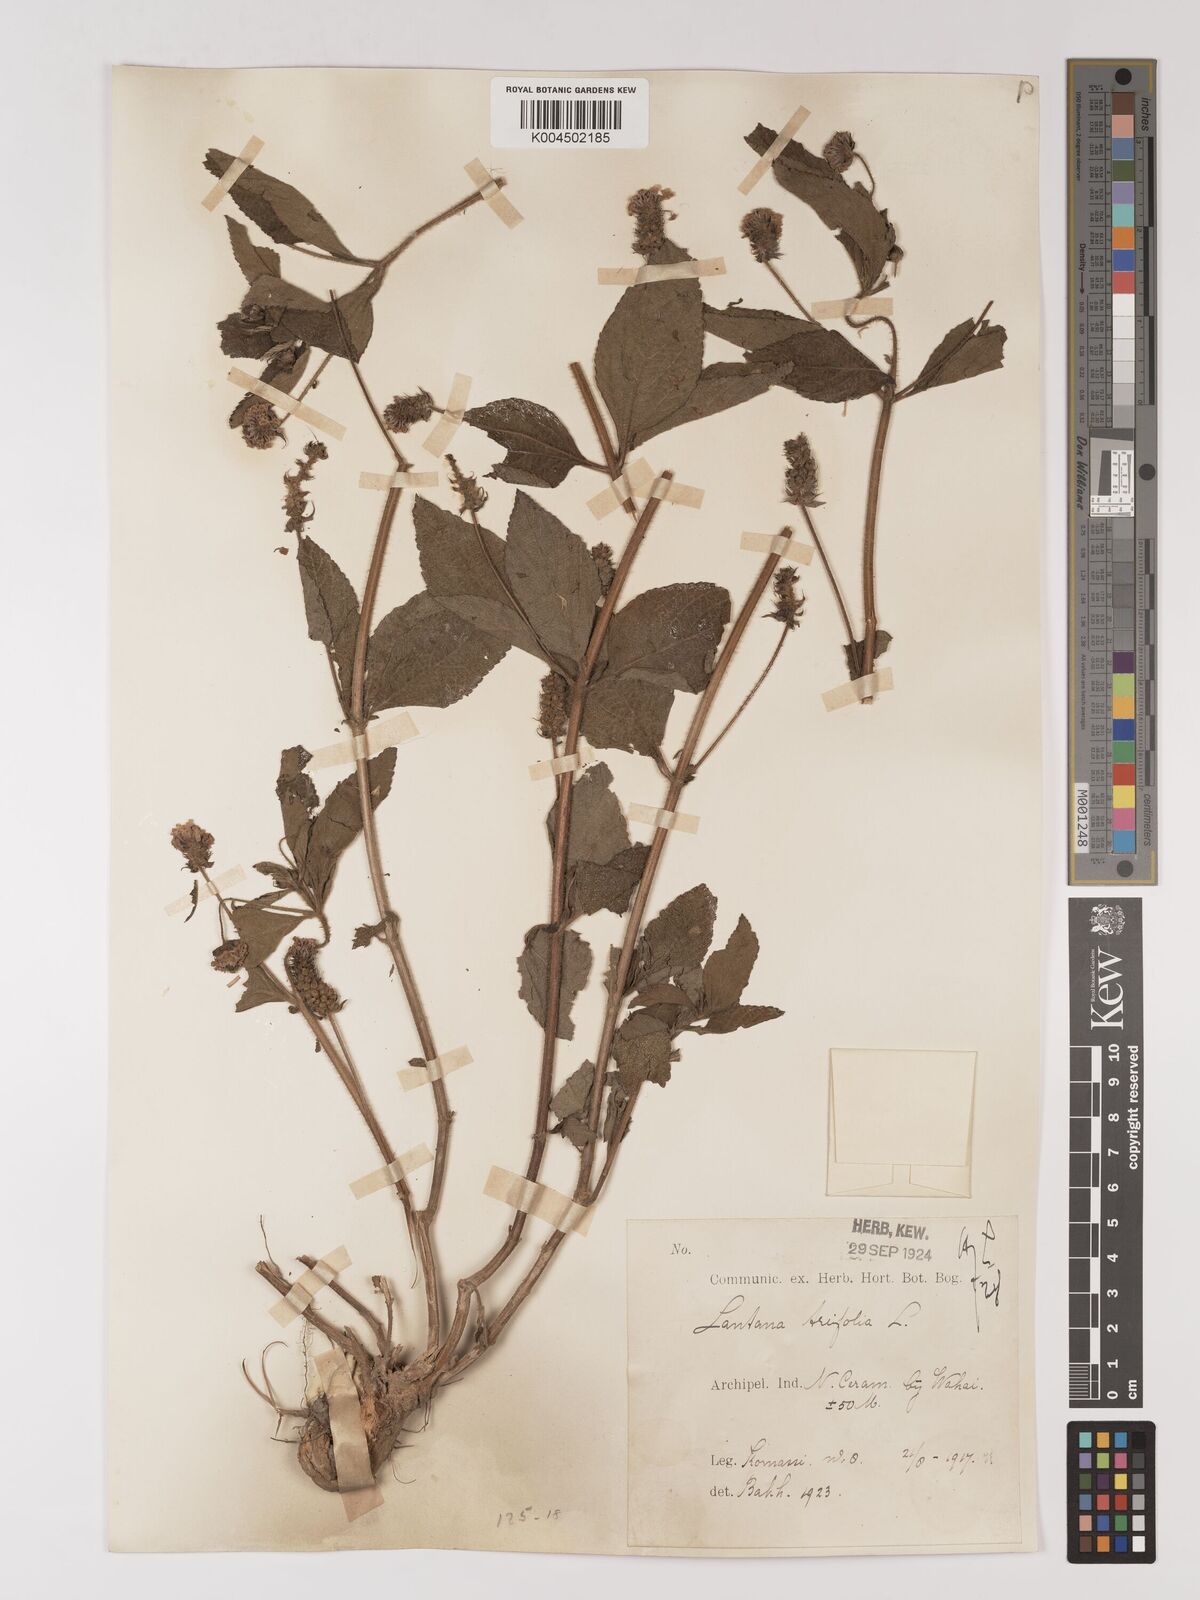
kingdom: Plantae
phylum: Tracheophyta
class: Magnoliopsida
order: Lamiales
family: Verbenaceae
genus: Lantana
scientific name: Lantana trifolia
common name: Sweet-sage
